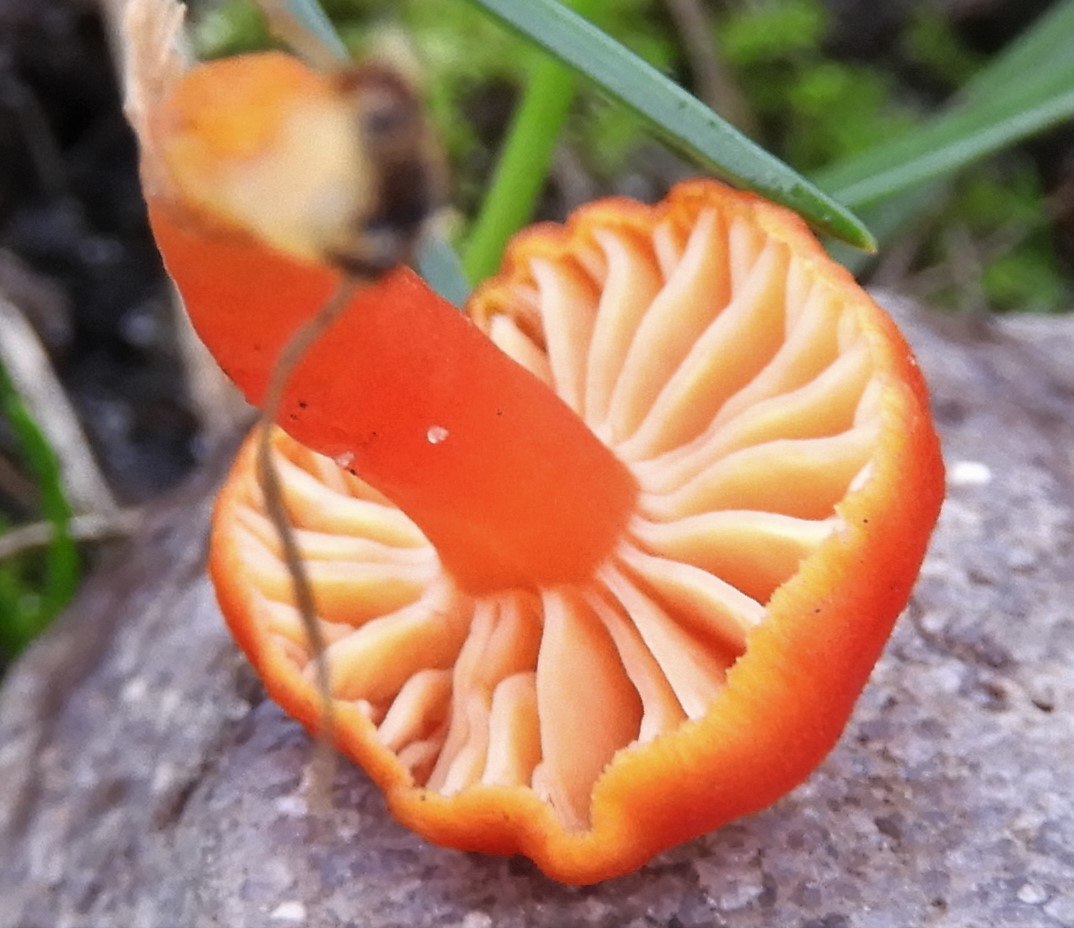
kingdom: Fungi
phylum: Basidiomycota
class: Agaricomycetes
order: Agaricales
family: Hygrophoraceae
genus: Hygrocybe
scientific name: Hygrocybe miniata
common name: mønje-vokshat
